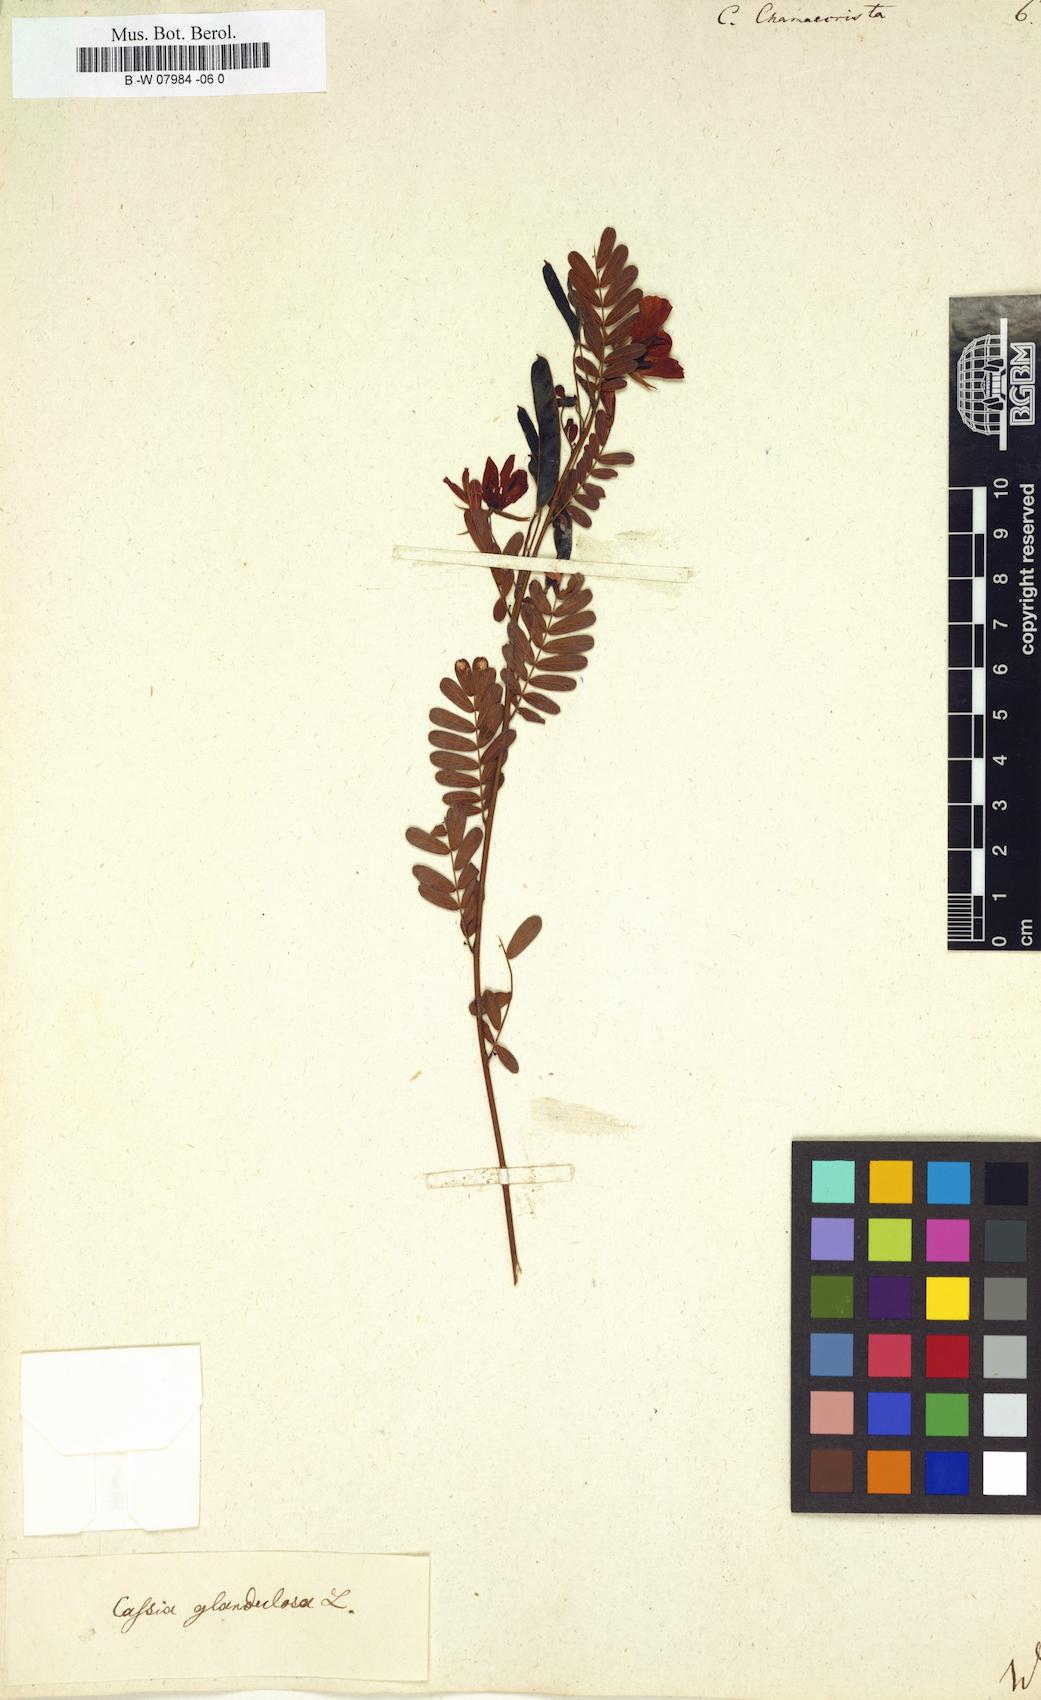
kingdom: Plantae
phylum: Tracheophyta
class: Magnoliopsida
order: Fabales
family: Fabaceae
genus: Chamaecrista
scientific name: Chamaecrista
